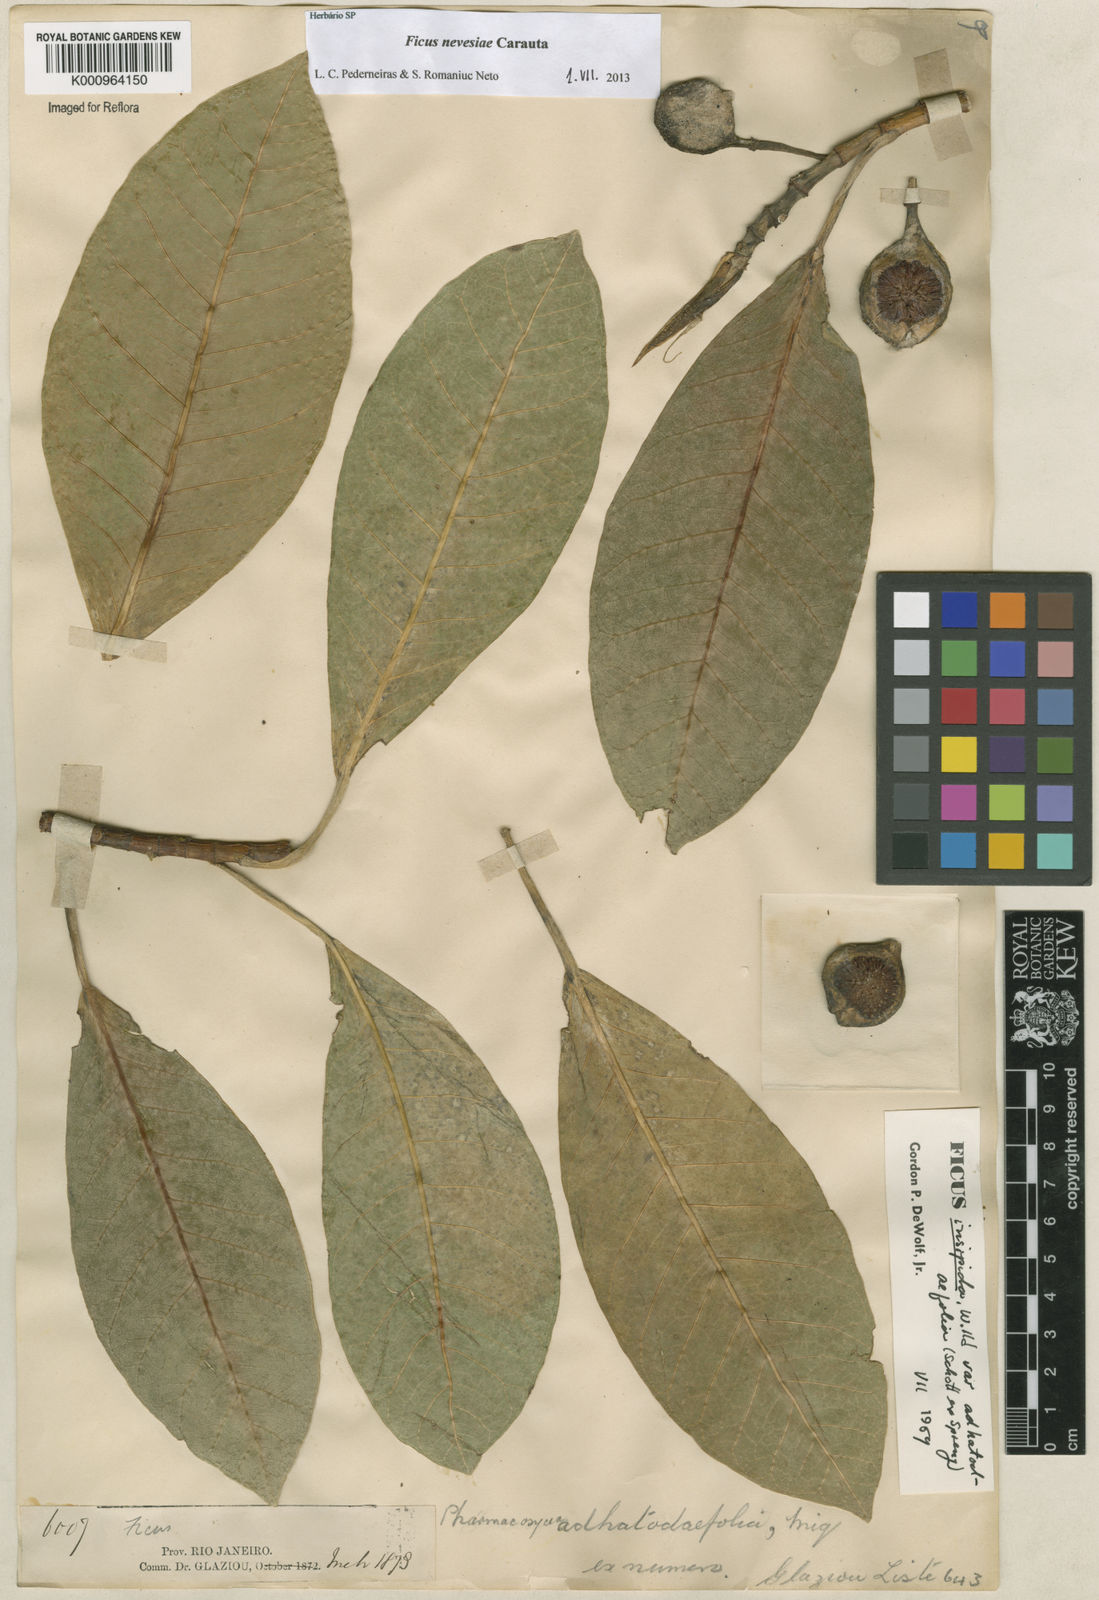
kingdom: Plantae
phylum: Tracheophyta
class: Magnoliopsida
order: Rosales
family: Moraceae
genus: Ficus
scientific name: Ficus vermifuga
